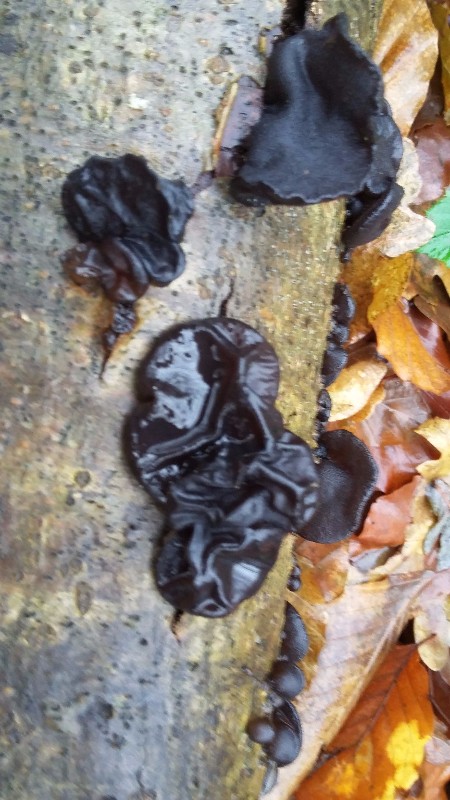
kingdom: Fungi
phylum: Basidiomycota
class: Agaricomycetes
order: Auriculariales
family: Auriculariaceae
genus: Exidia
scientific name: Exidia glandulosa
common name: ege-bævretop
